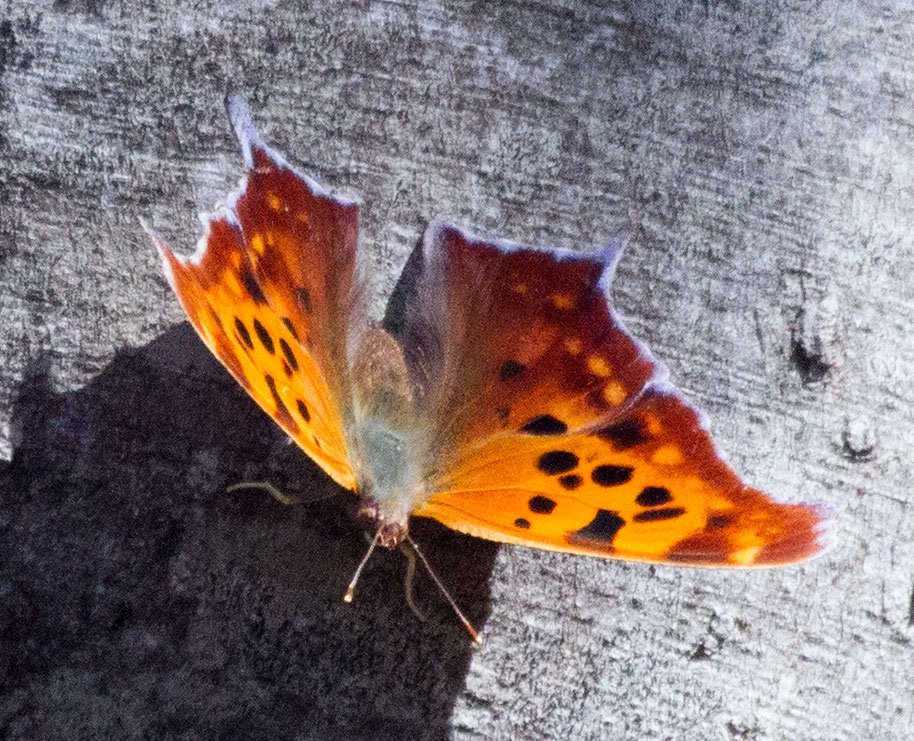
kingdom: Animalia
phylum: Arthropoda
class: Insecta
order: Lepidoptera
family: Nymphalidae
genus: Polygonia
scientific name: Polygonia interrogationis
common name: Question Mark
